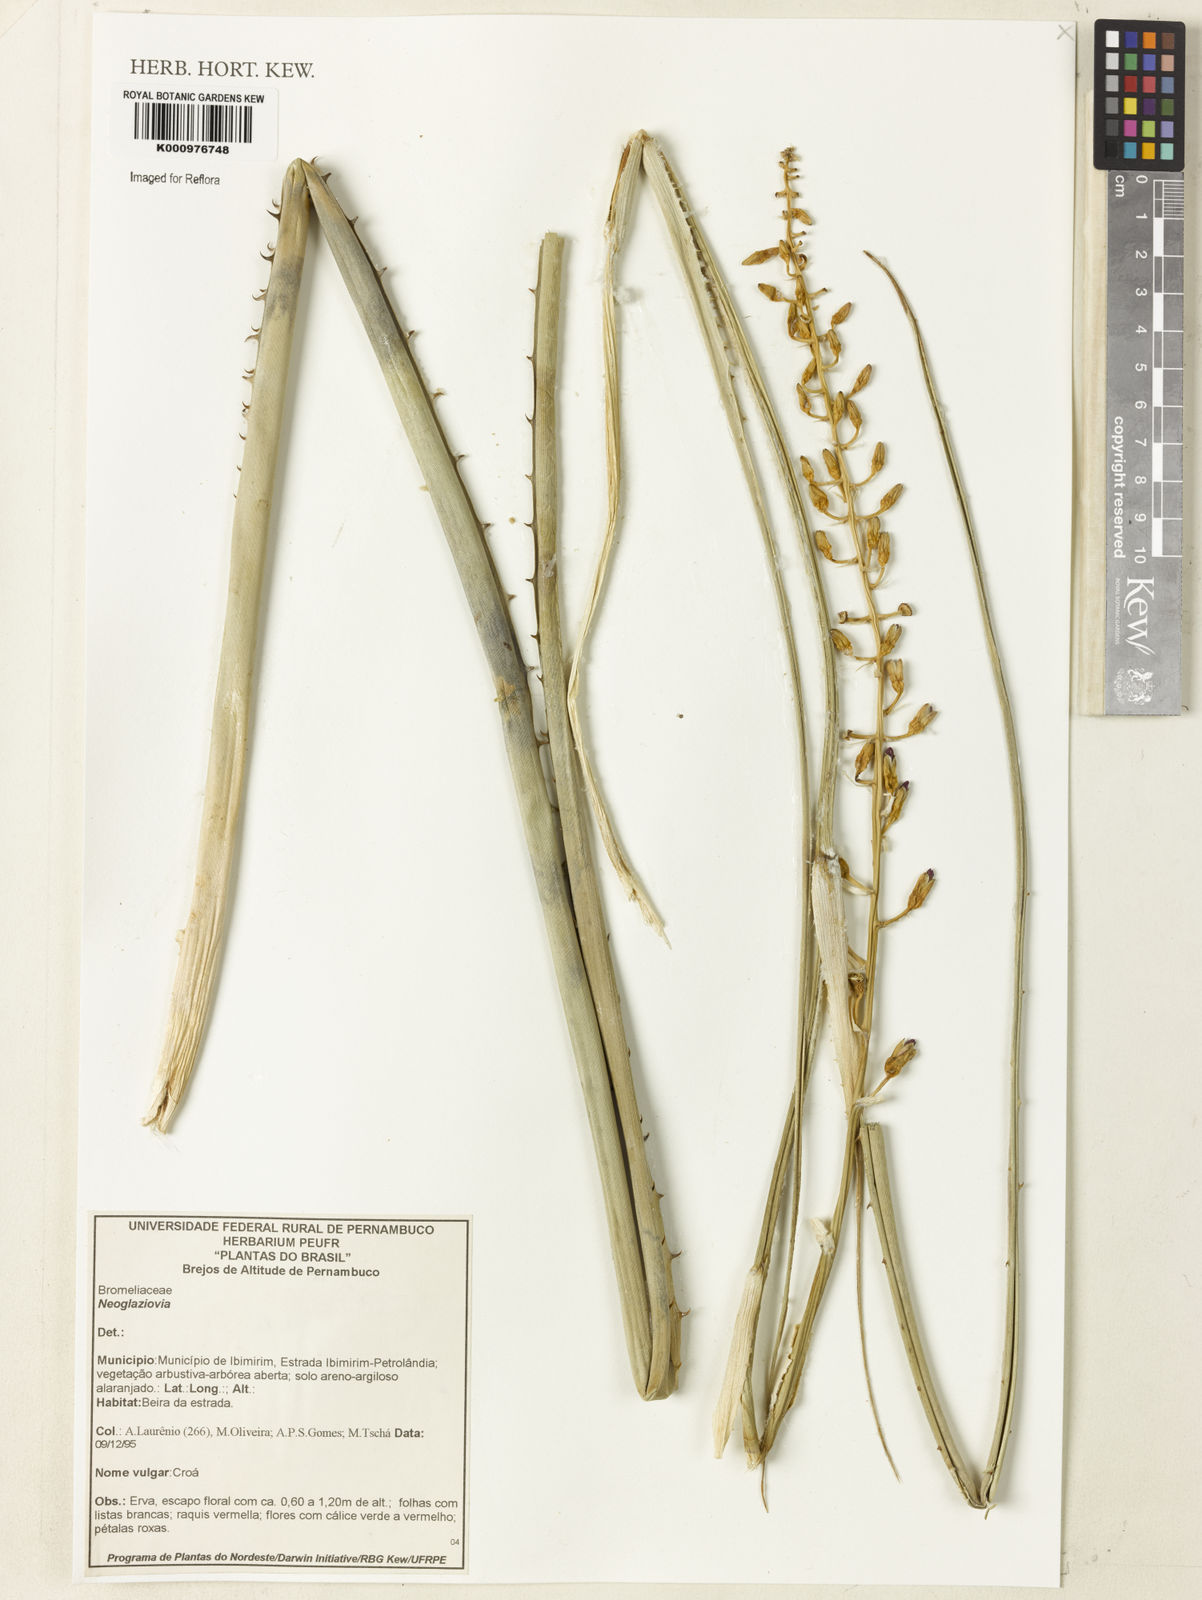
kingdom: Plantae
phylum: Tracheophyta
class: Liliopsida
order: Poales
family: Bromeliaceae
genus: Neoglaziovia
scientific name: Neoglaziovia
